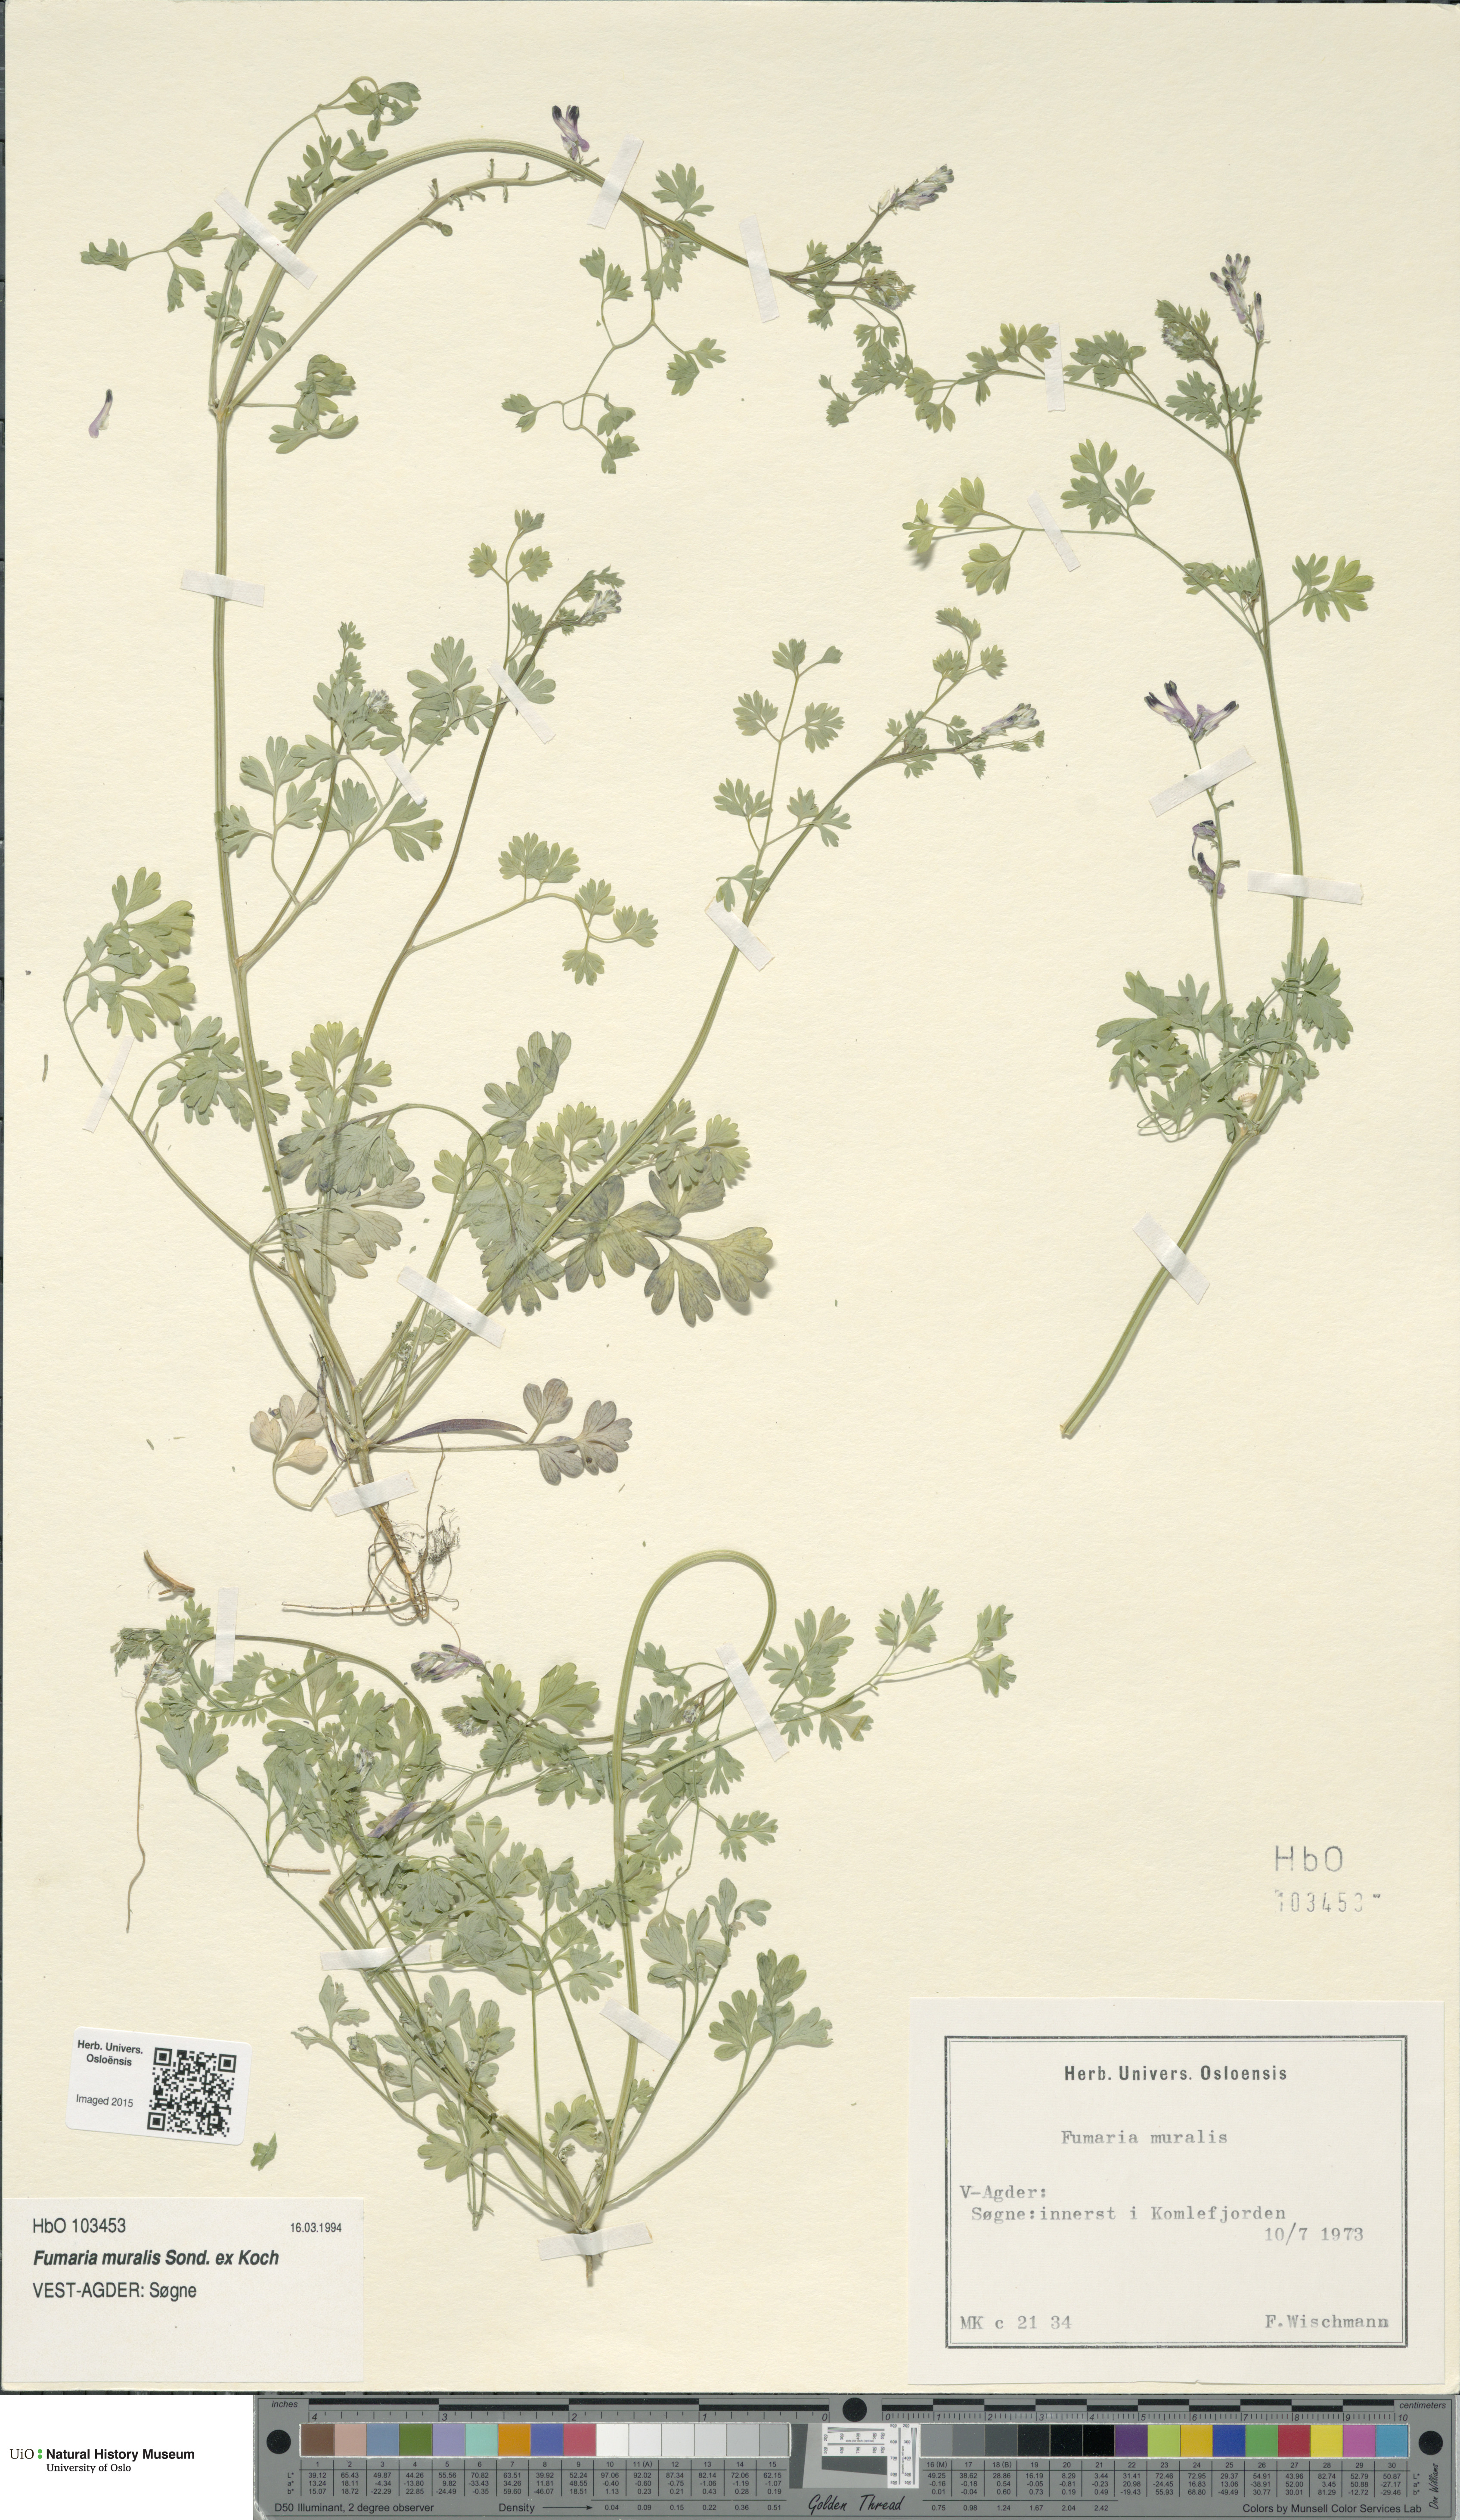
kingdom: Plantae
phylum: Tracheophyta
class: Magnoliopsida
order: Ranunculales
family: Papaveraceae
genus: Fumaria
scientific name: Fumaria muralis
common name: Common ramping-fumitory
